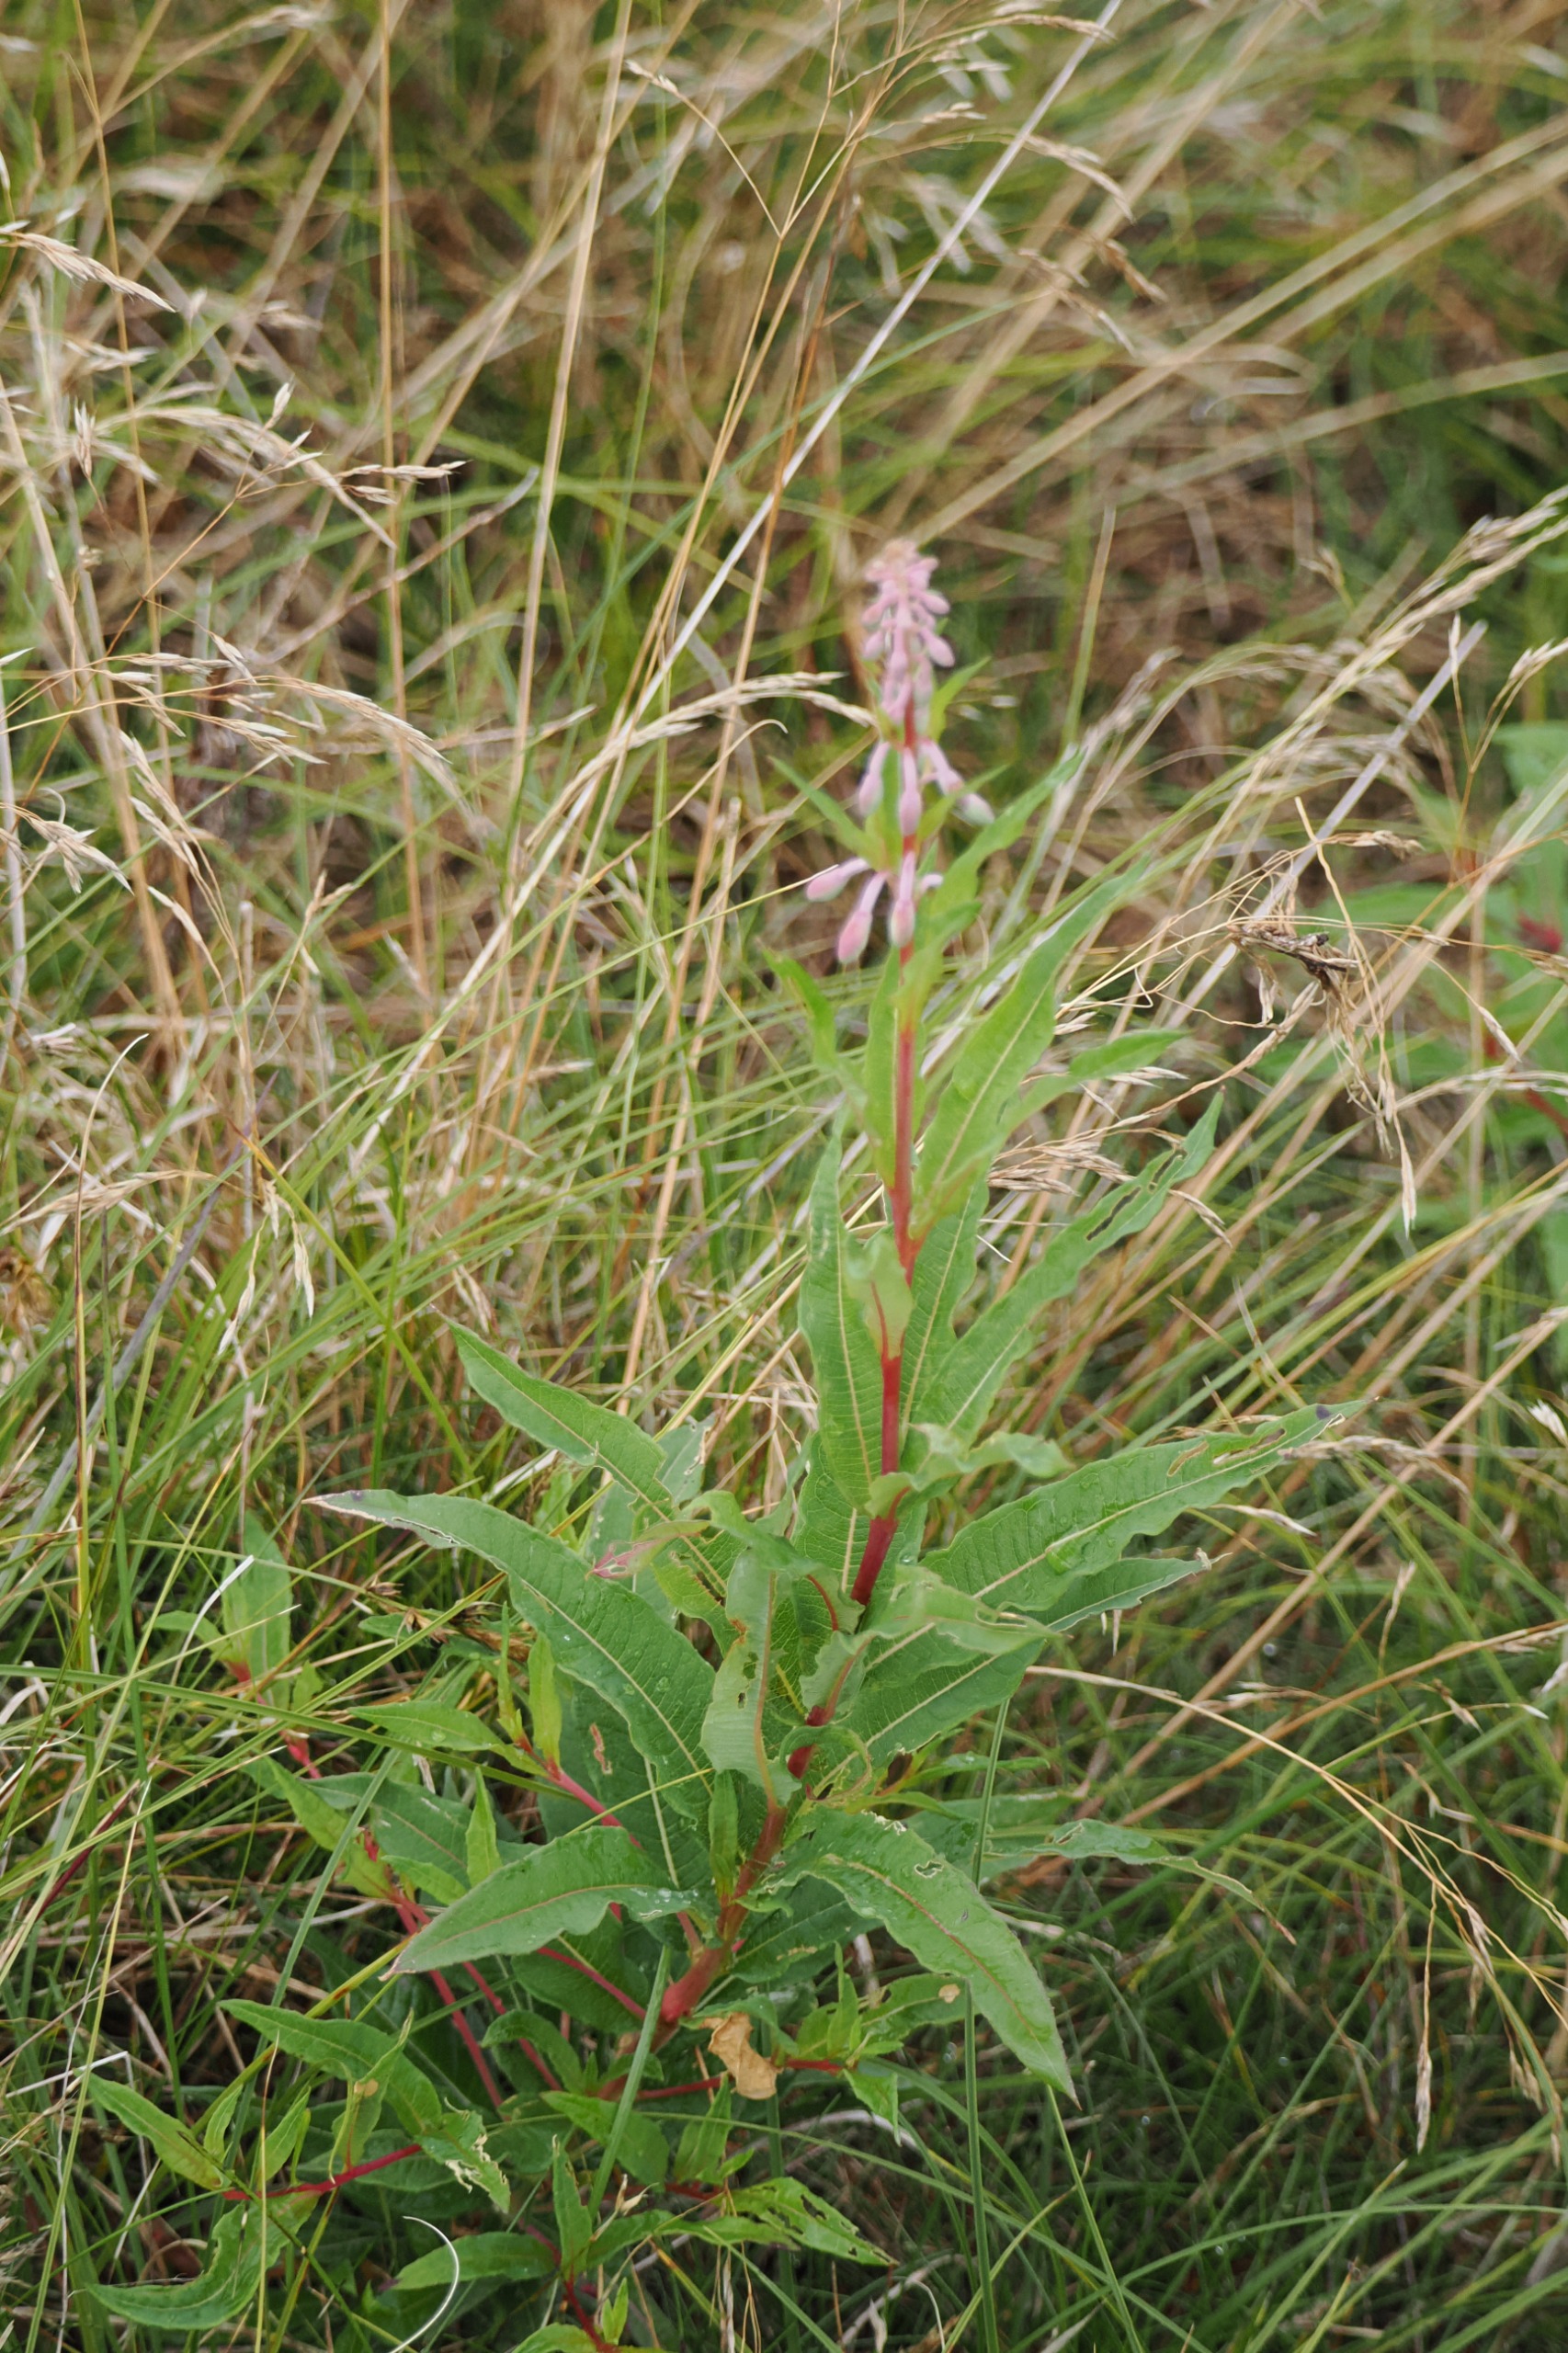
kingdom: Plantae
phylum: Tracheophyta
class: Magnoliopsida
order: Myrtales
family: Onagraceae
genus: Chamaenerion
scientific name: Chamaenerion angustifolium
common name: Gederams
